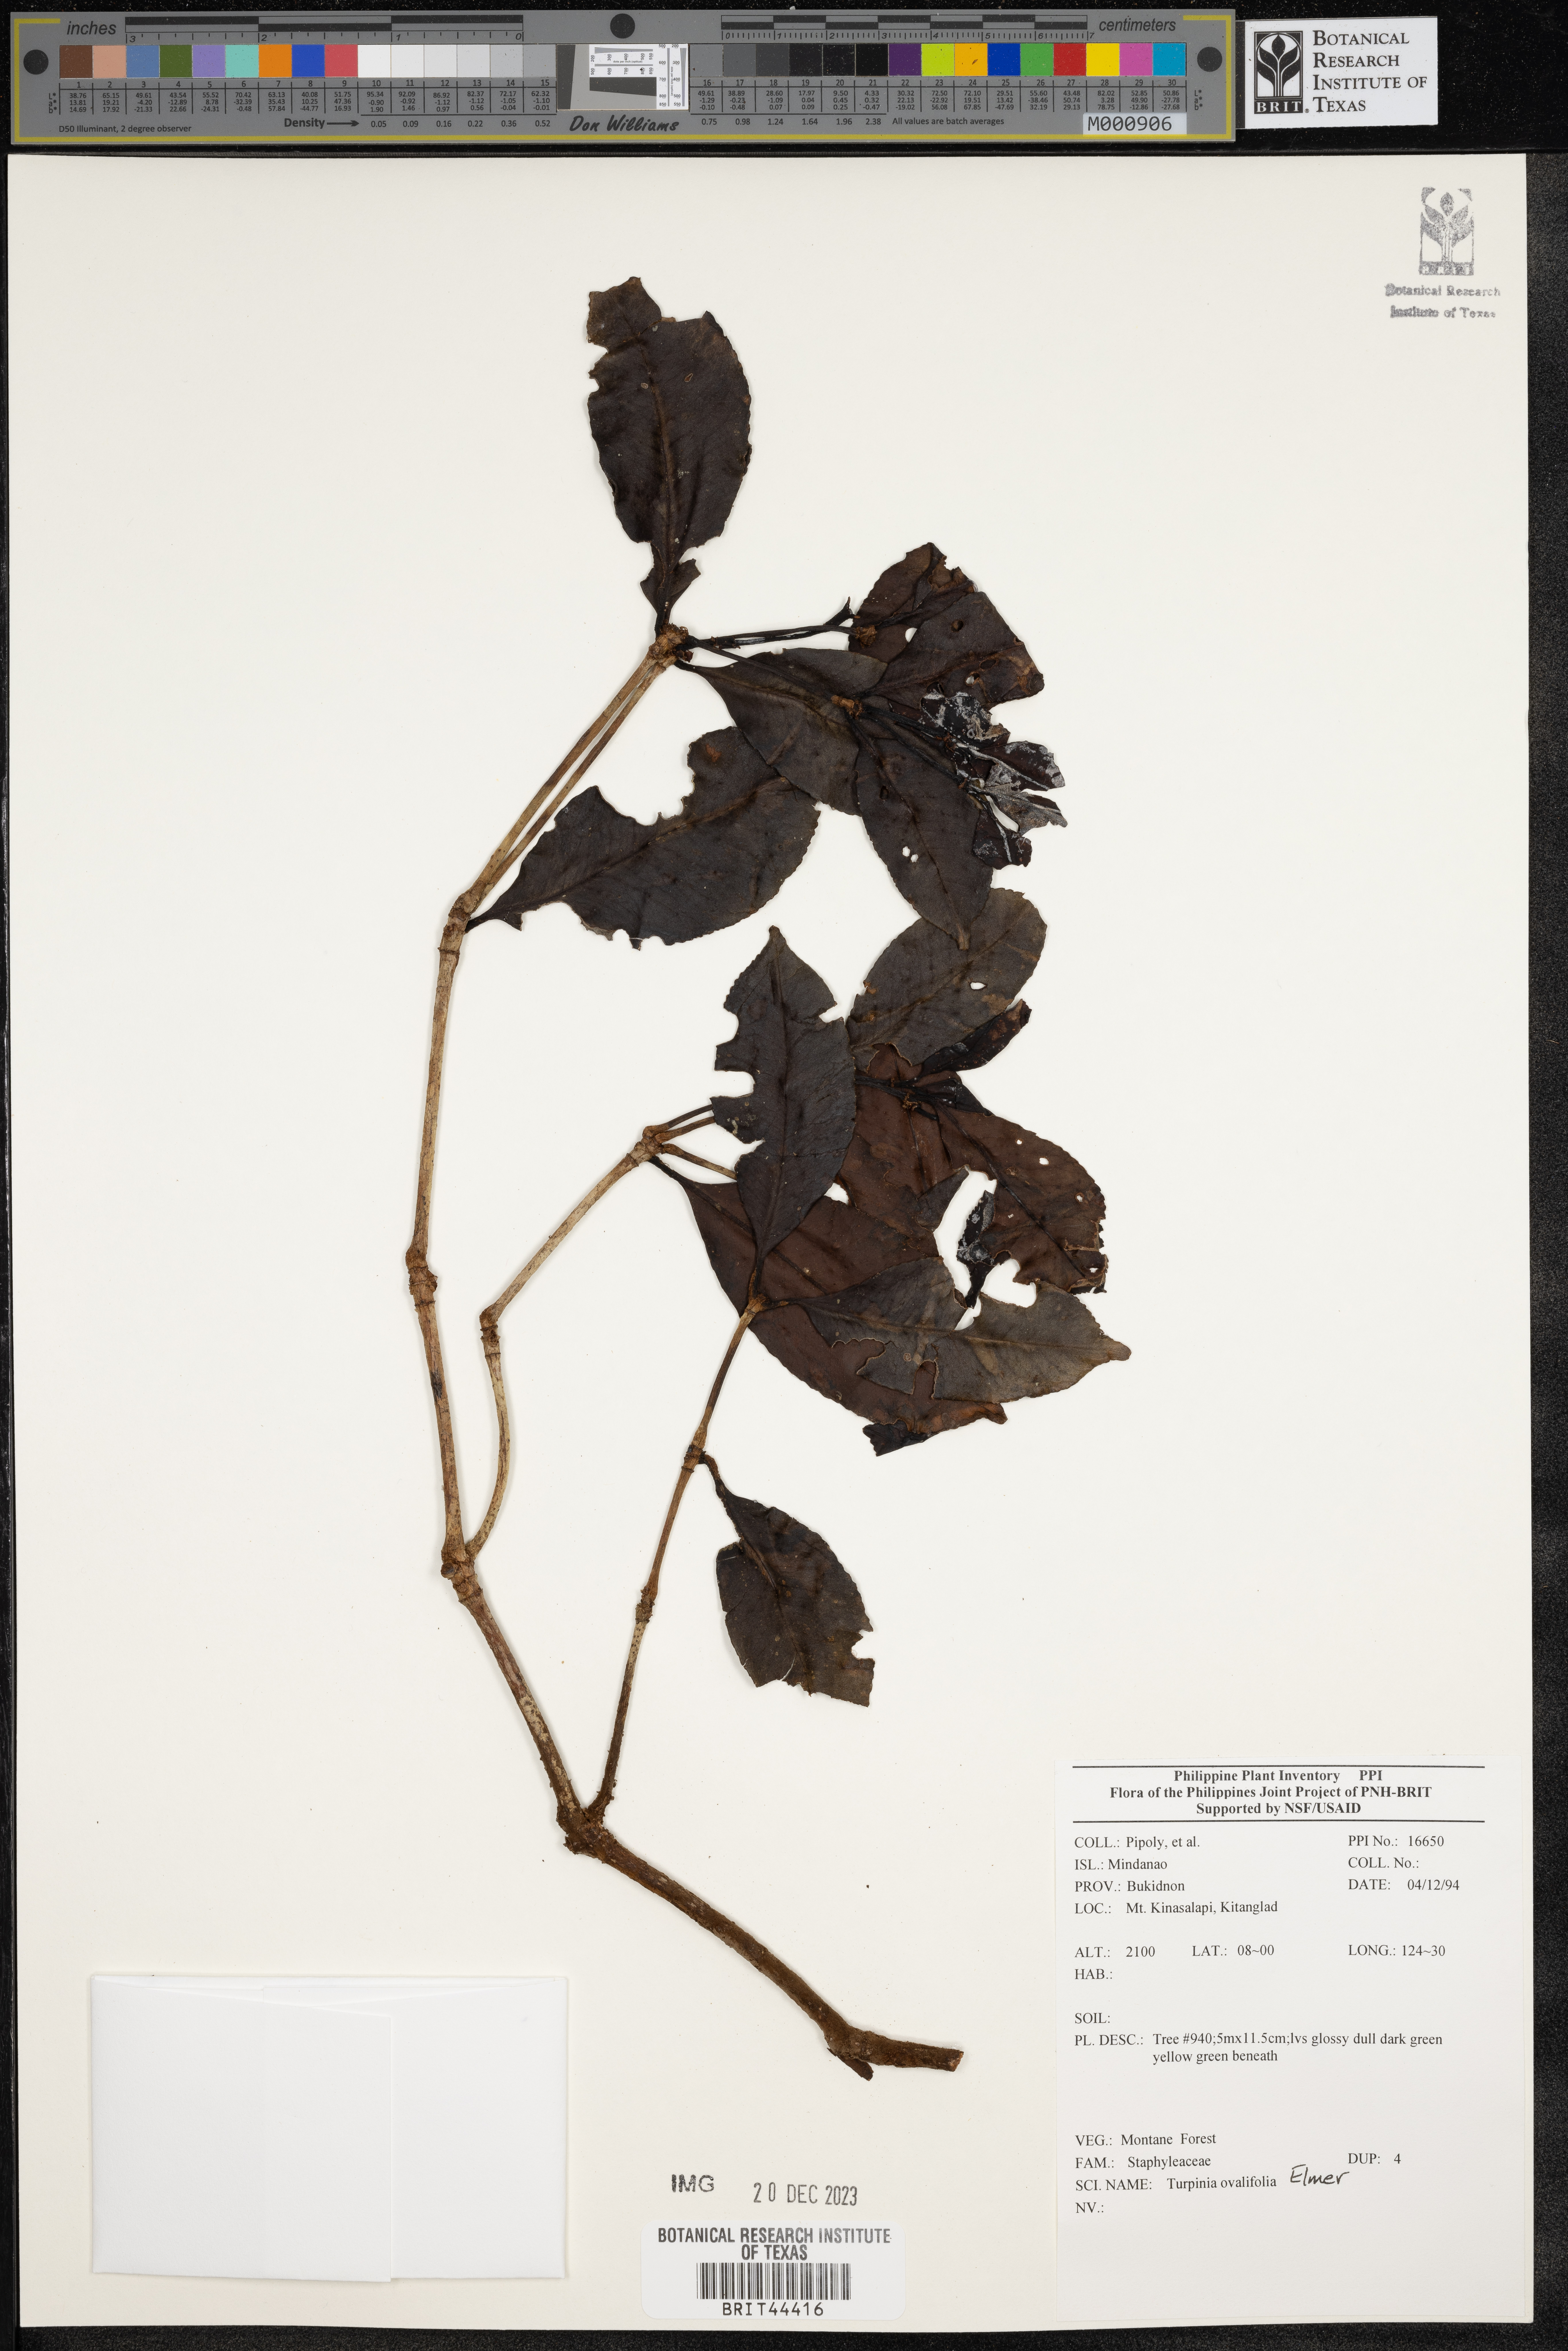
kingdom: Plantae
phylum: Tracheophyta
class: Magnoliopsida
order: Crossosomatales
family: Staphyleaceae
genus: Dalrympelea
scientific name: Dalrympelea trifoliata
